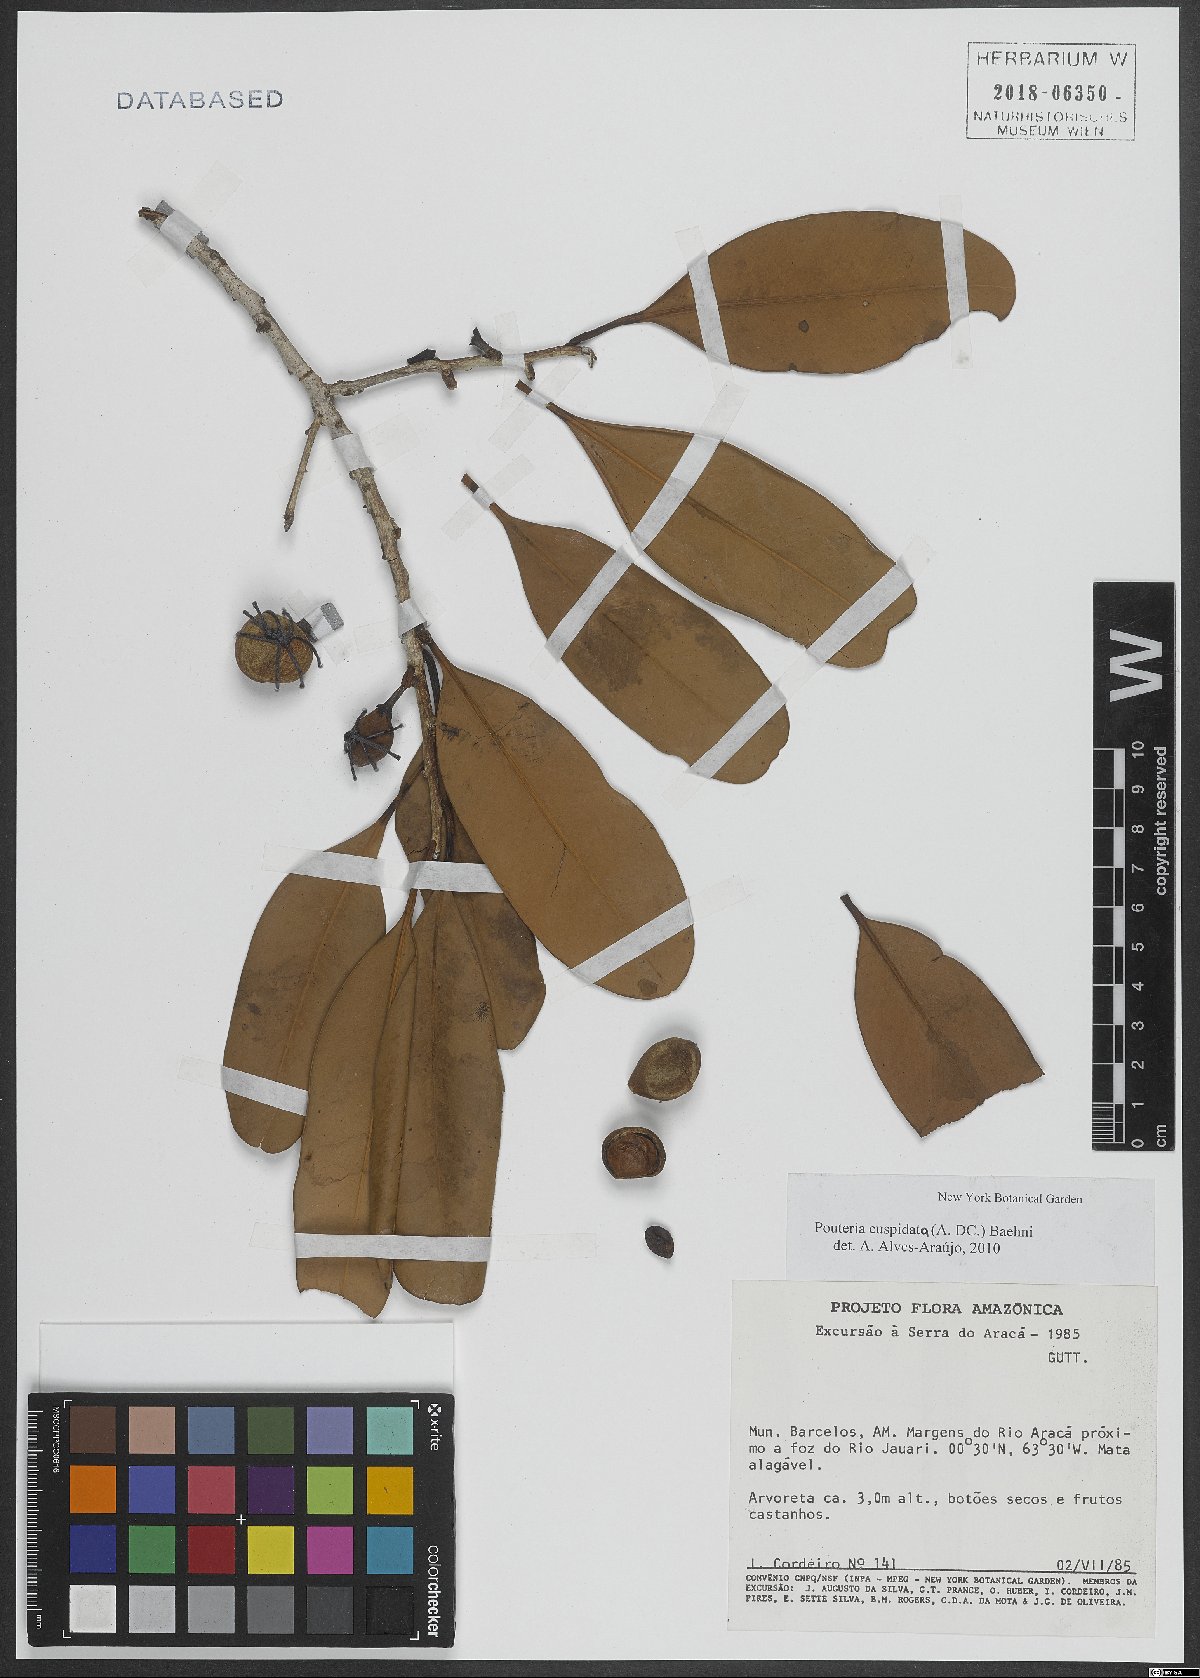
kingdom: Plantae
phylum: Tracheophyta
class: Magnoliopsida
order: Ericales
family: Sapotaceae
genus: Pouteria
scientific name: Pouteria cuspidata
